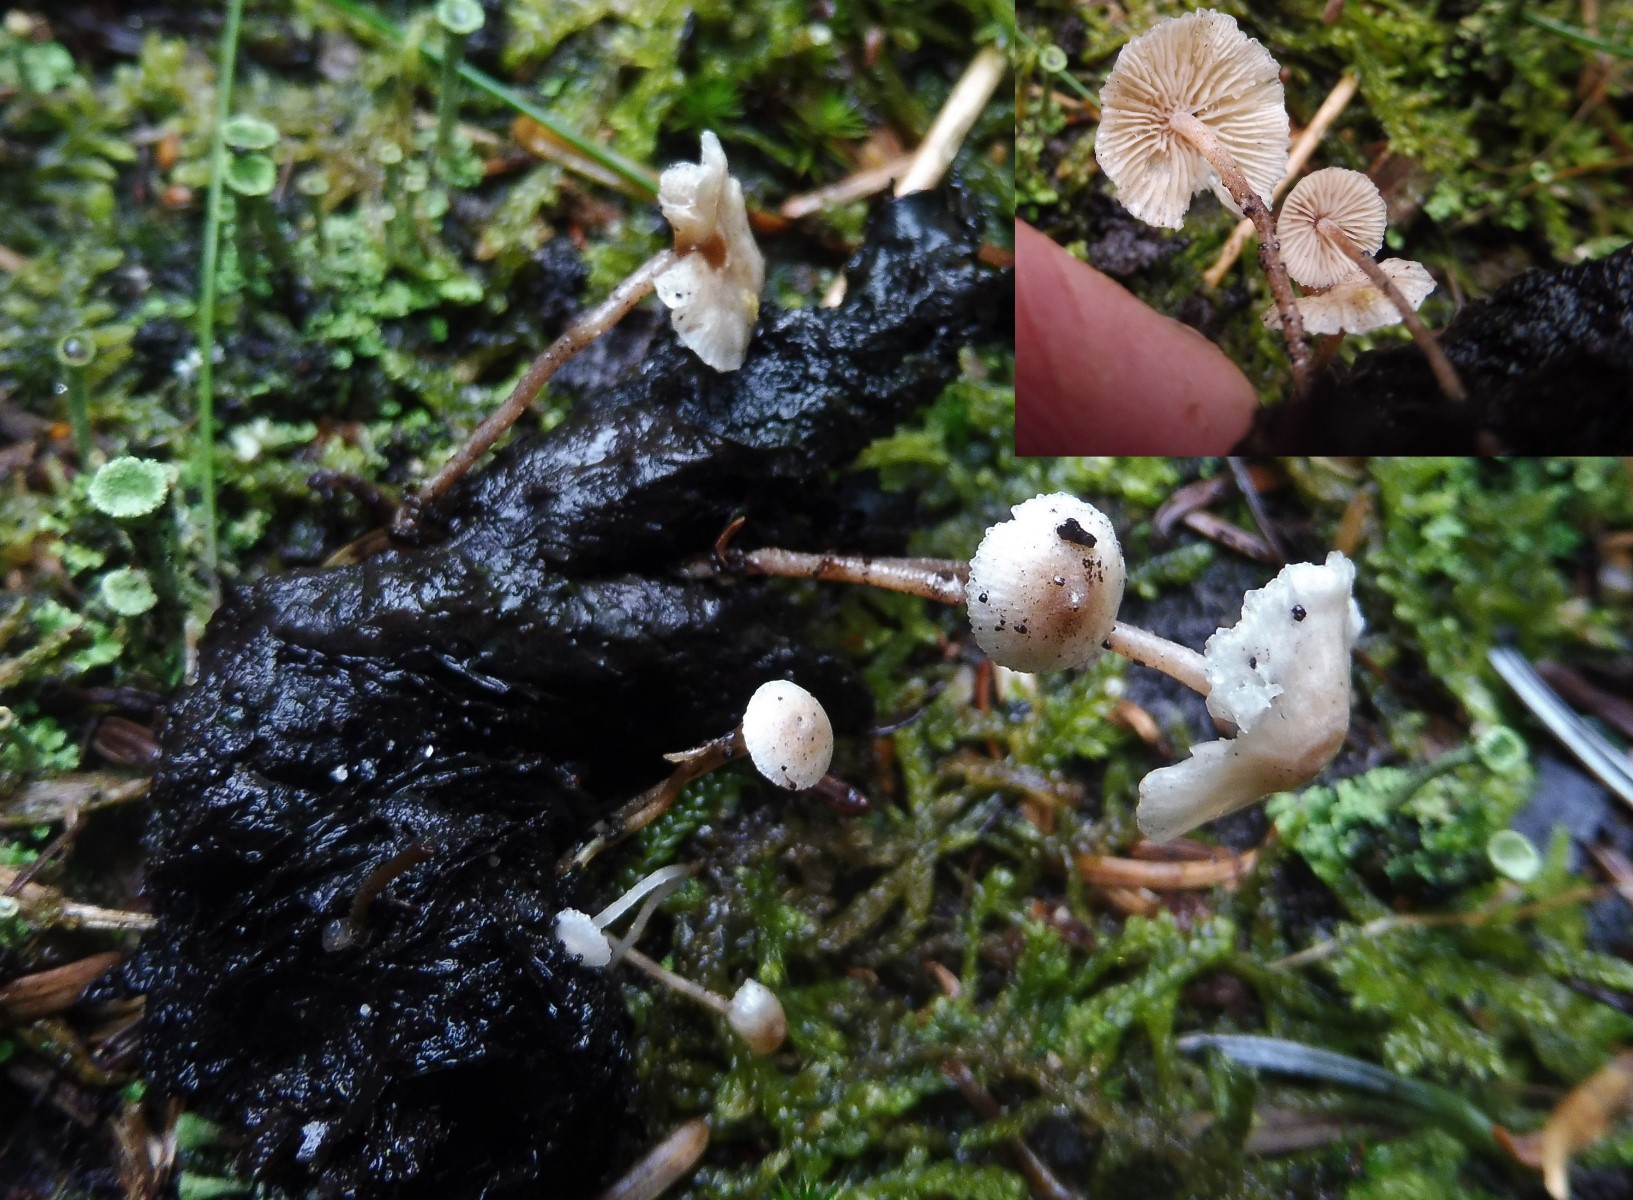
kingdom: Fungi
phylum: Basidiomycota
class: Agaricomycetes
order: Agaricales
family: Tricholomataceae
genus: Collybia
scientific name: Collybia cookei
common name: gulknoldet lighat
